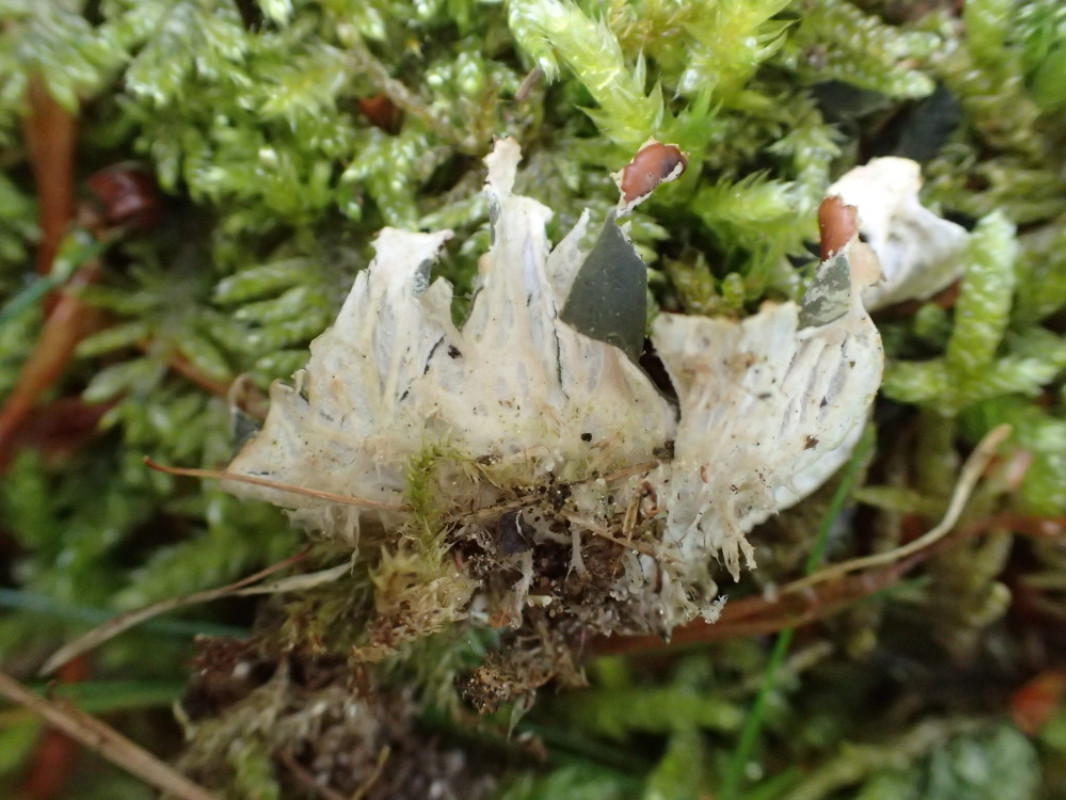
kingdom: Fungi
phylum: Ascomycota
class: Lecanoromycetes
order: Peltigerales
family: Peltigeraceae
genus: Peltigera
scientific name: Peltigera didactyla
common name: liden skjoldlav
